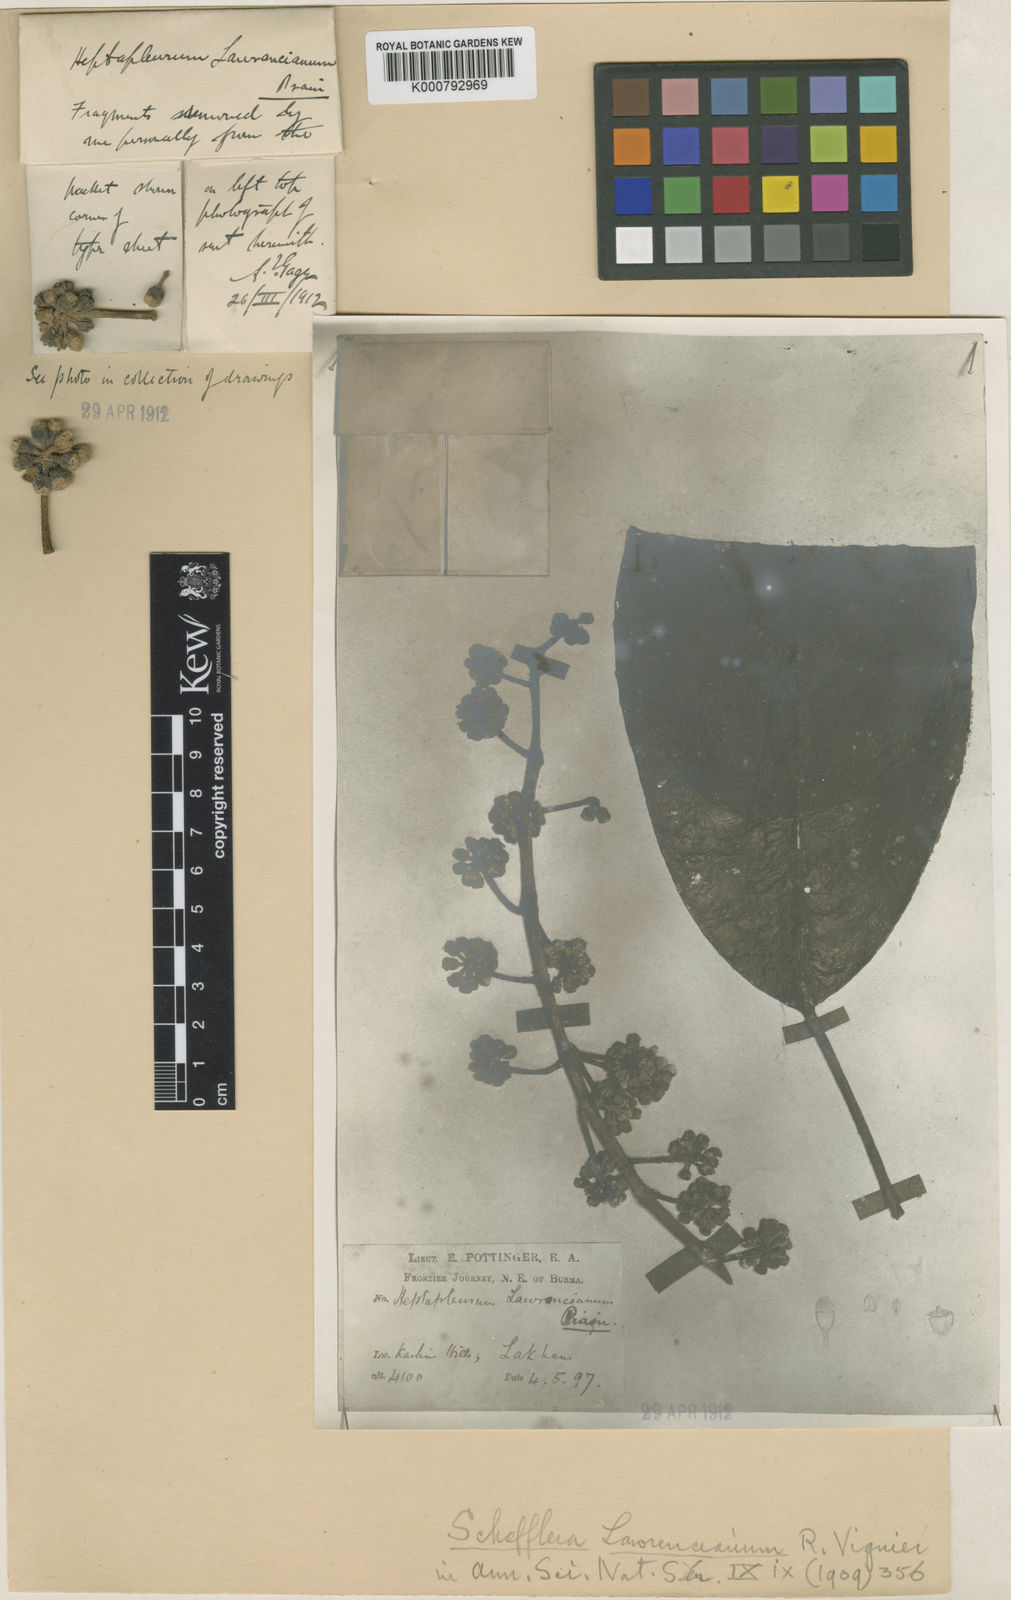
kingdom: Plantae
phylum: Tracheophyta
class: Magnoliopsida
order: Apiales
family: Araliaceae
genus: Heptapleurum
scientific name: Heptapleurum lawranceanum
